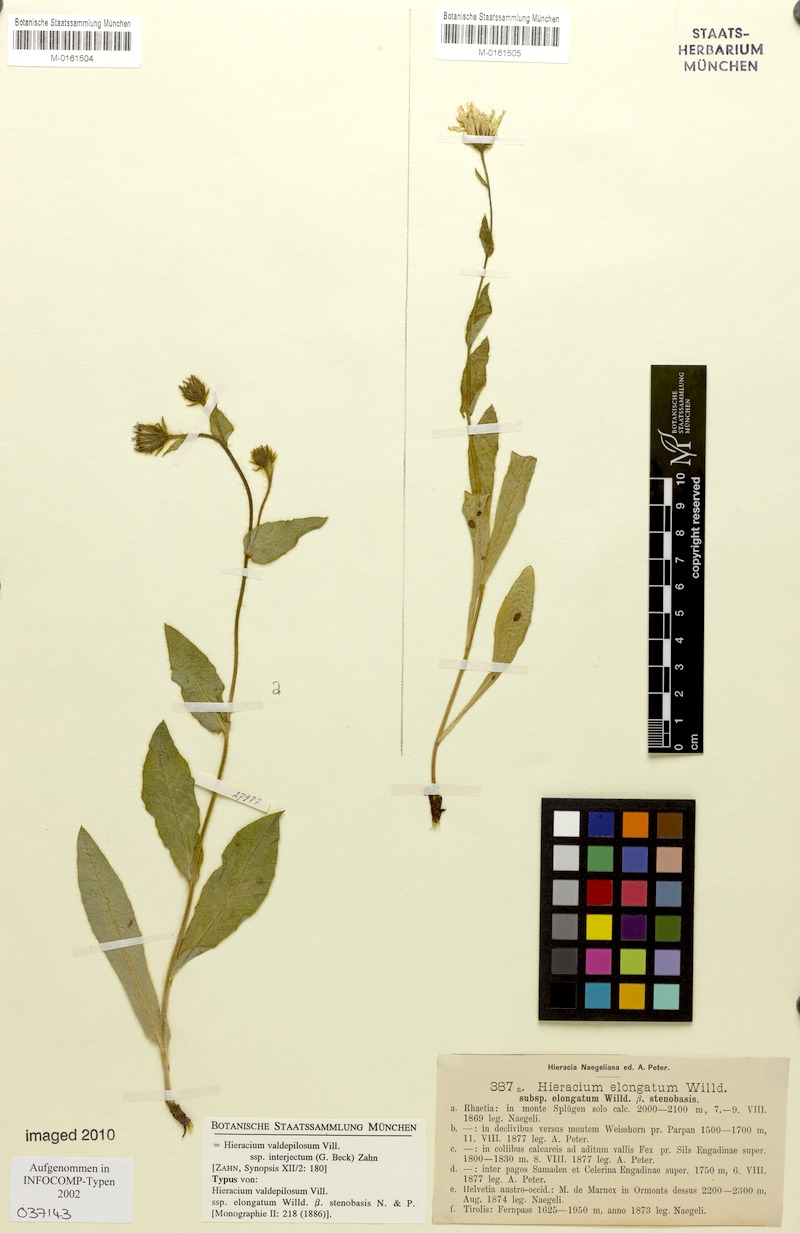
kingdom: Plantae
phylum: Tracheophyta
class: Magnoliopsida
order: Asterales
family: Asteraceae
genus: Hieracium
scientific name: Hieracium valdepilosum
